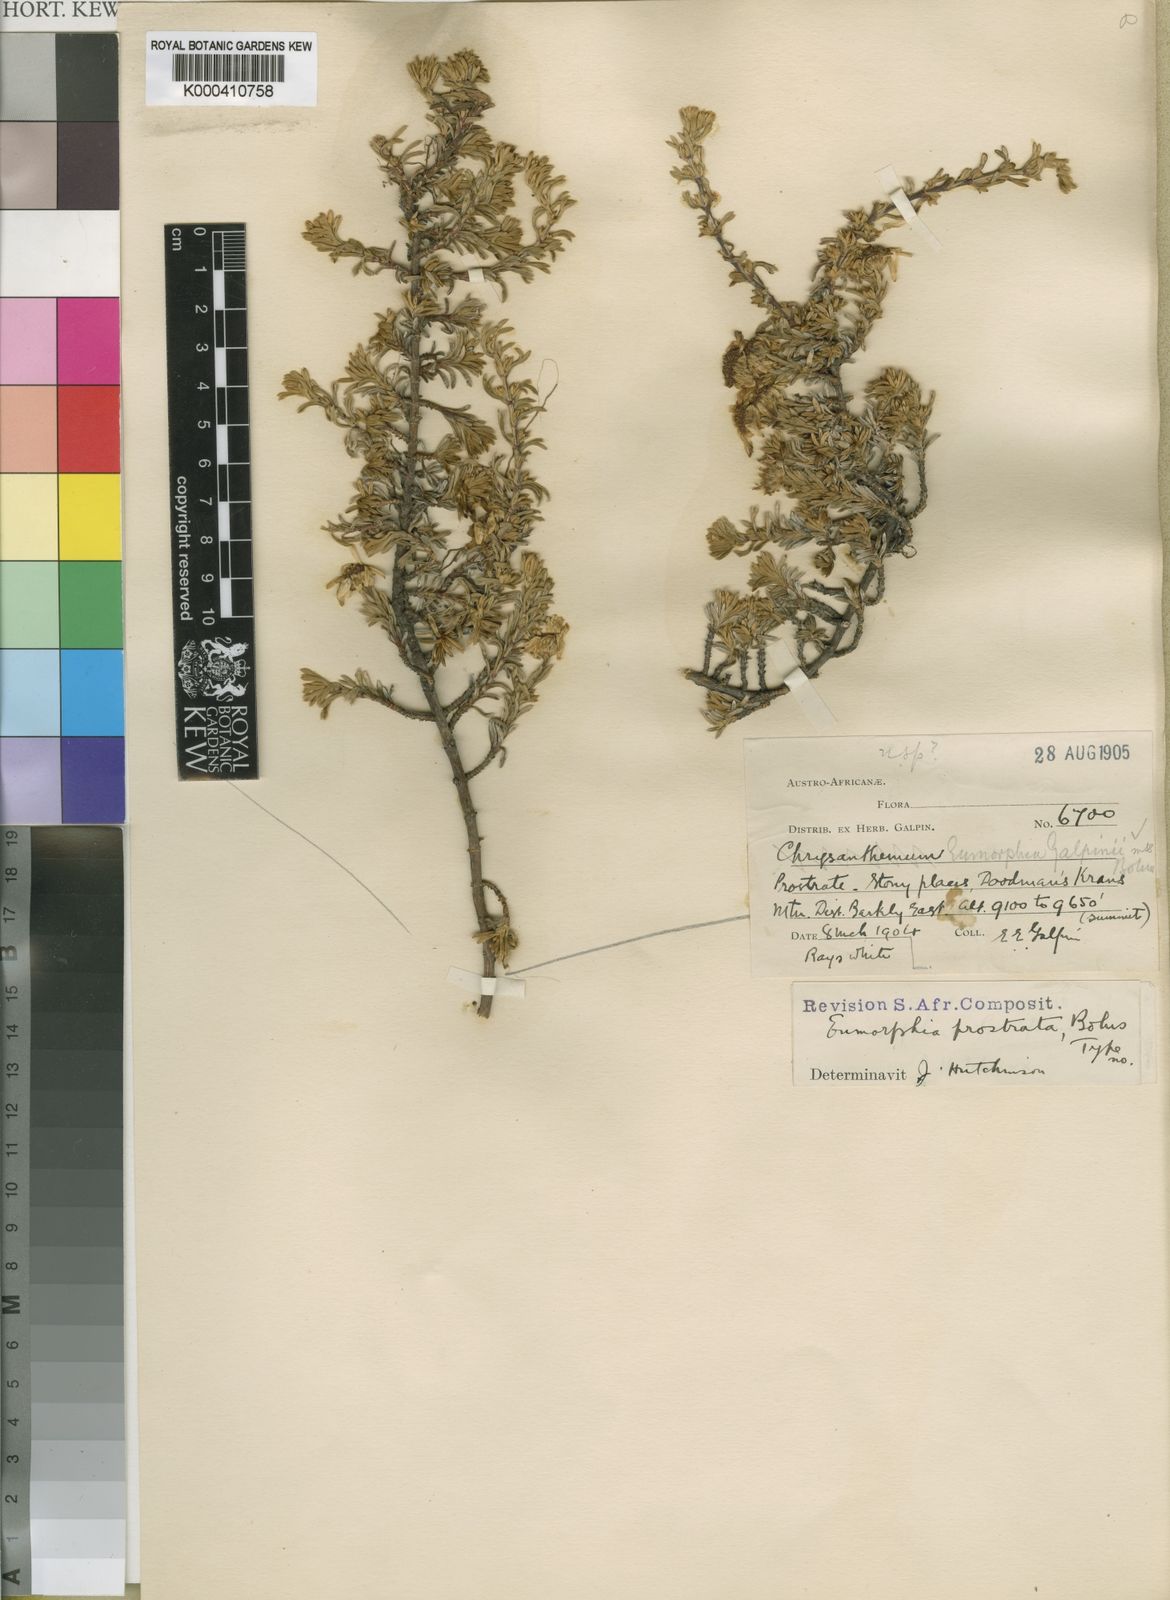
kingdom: Plantae
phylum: Tracheophyta
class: Magnoliopsida
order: Asterales
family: Asteraceae
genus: Eumorphia
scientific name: Eumorphia
